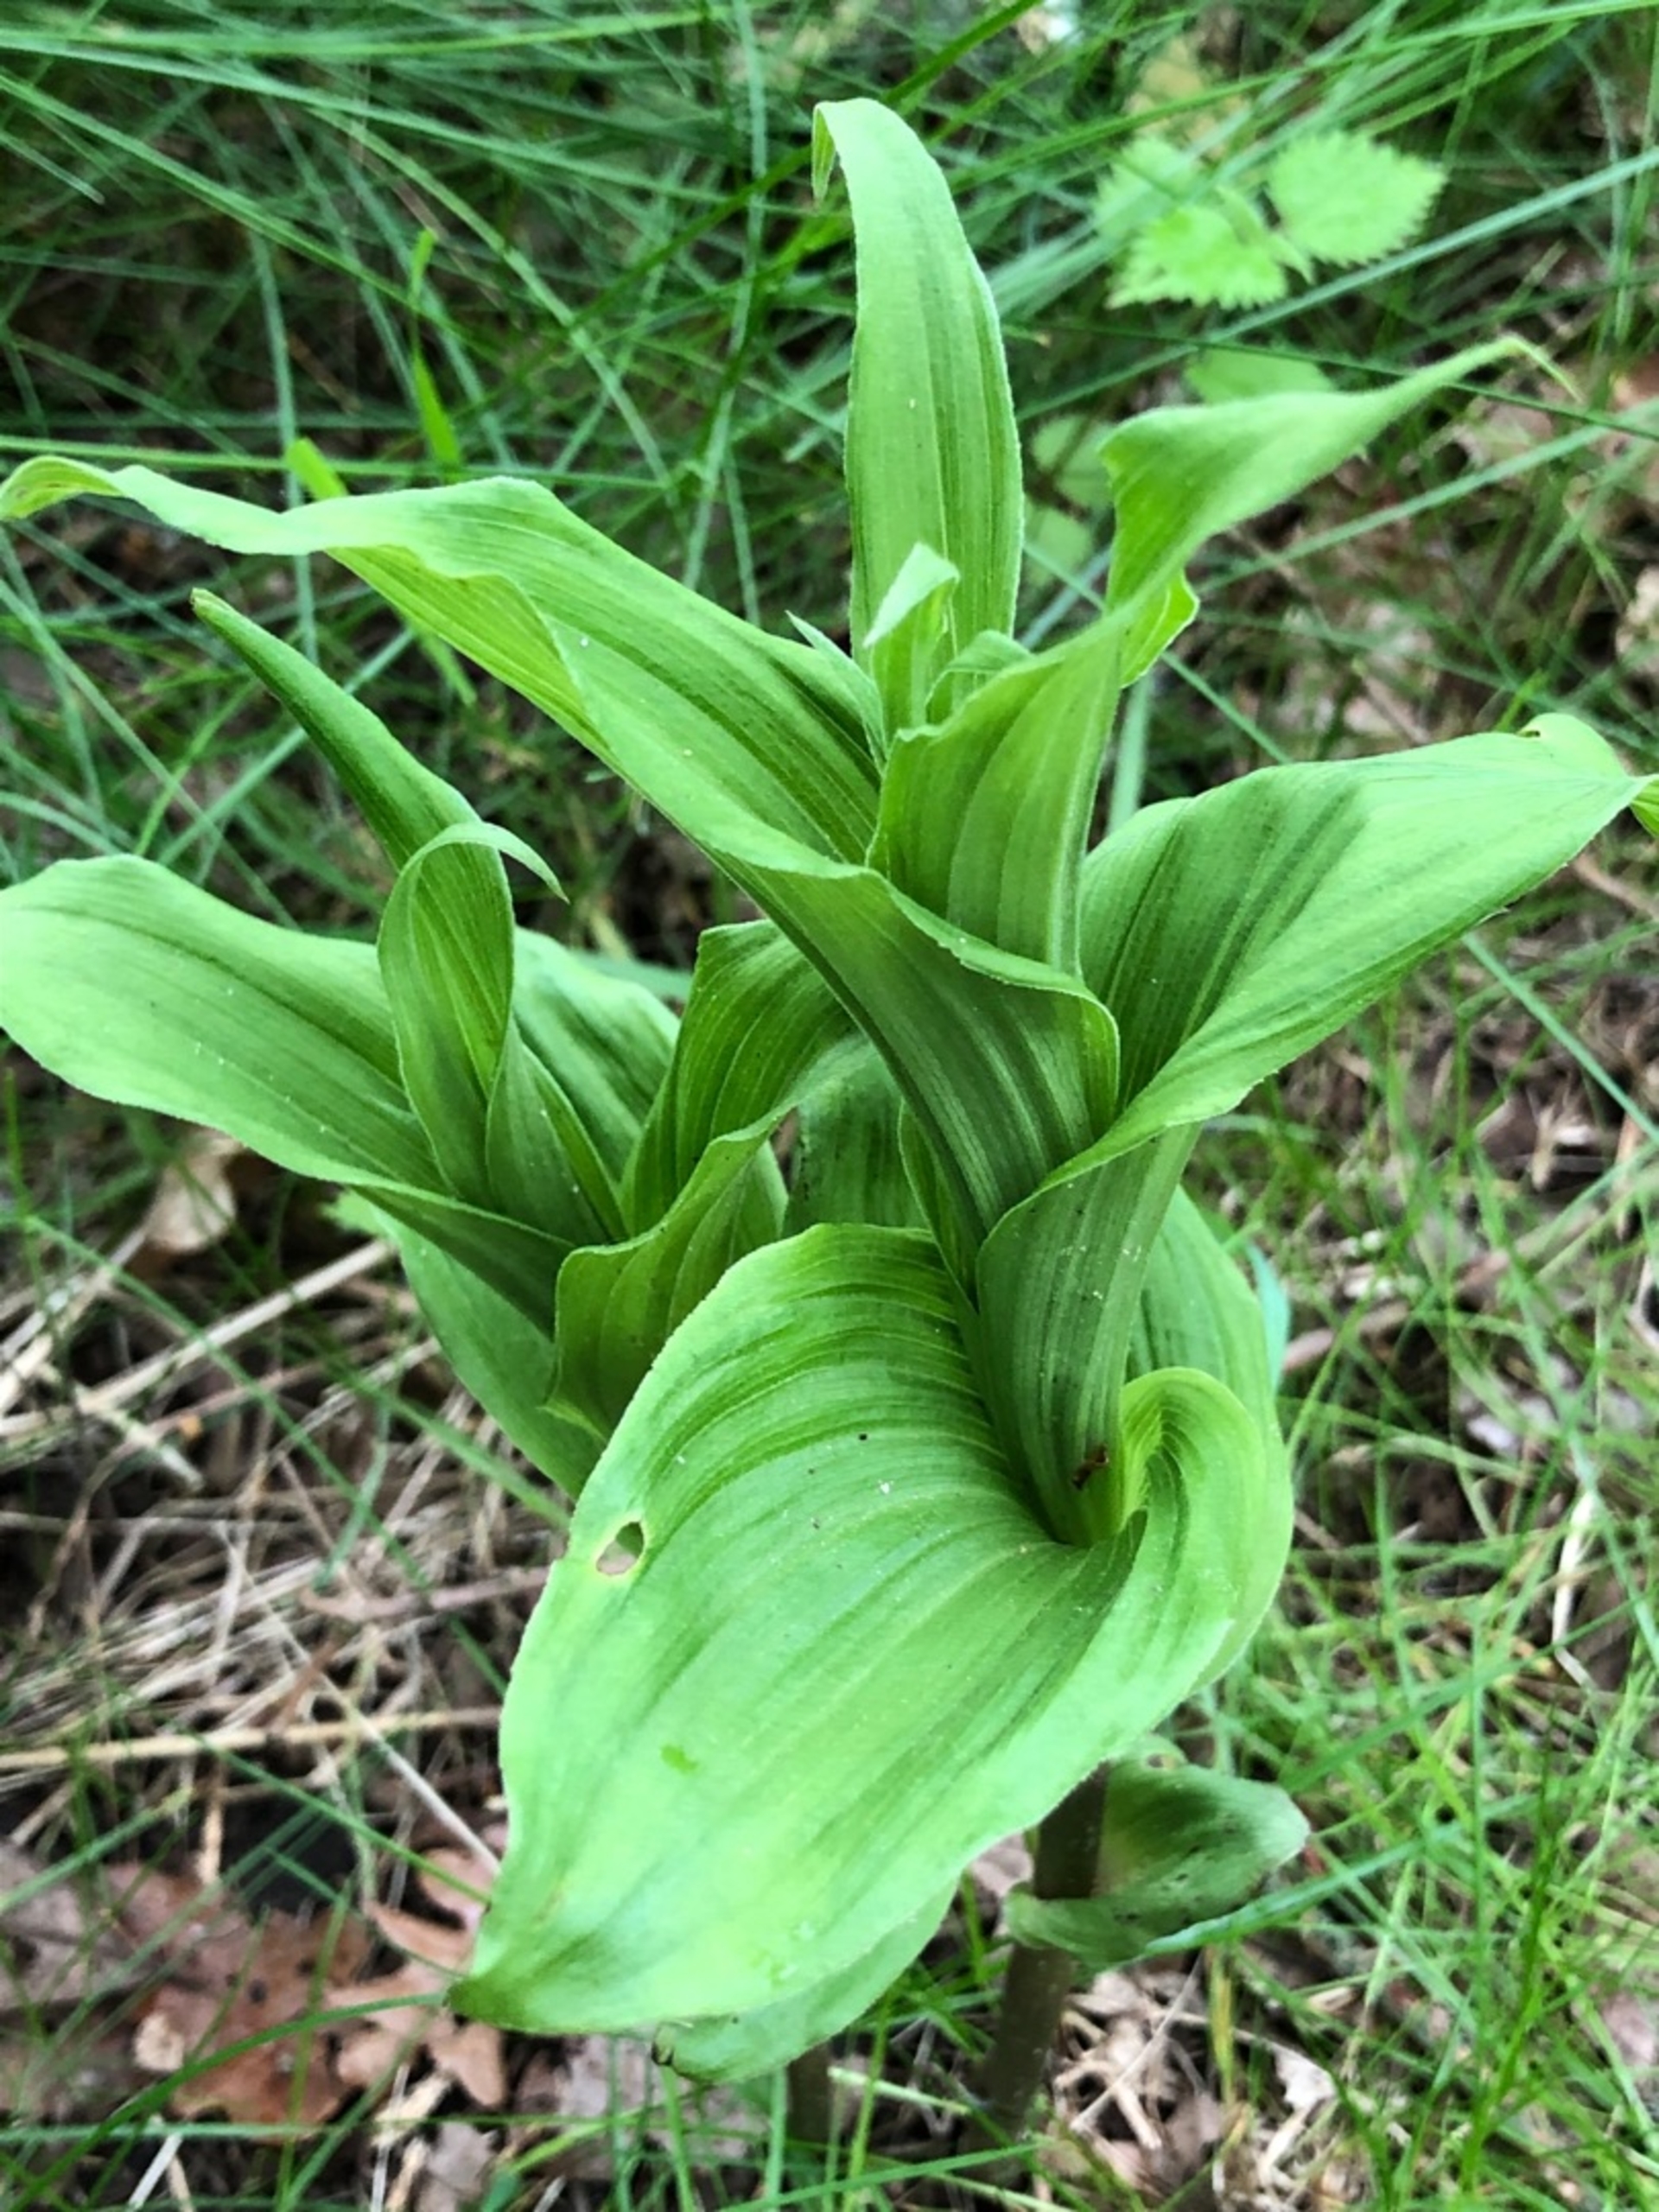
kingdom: Plantae
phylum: Tracheophyta
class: Liliopsida
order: Asparagales
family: Orchidaceae
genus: Epipactis
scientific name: Epipactis helleborine
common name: Skov-hullæbe
